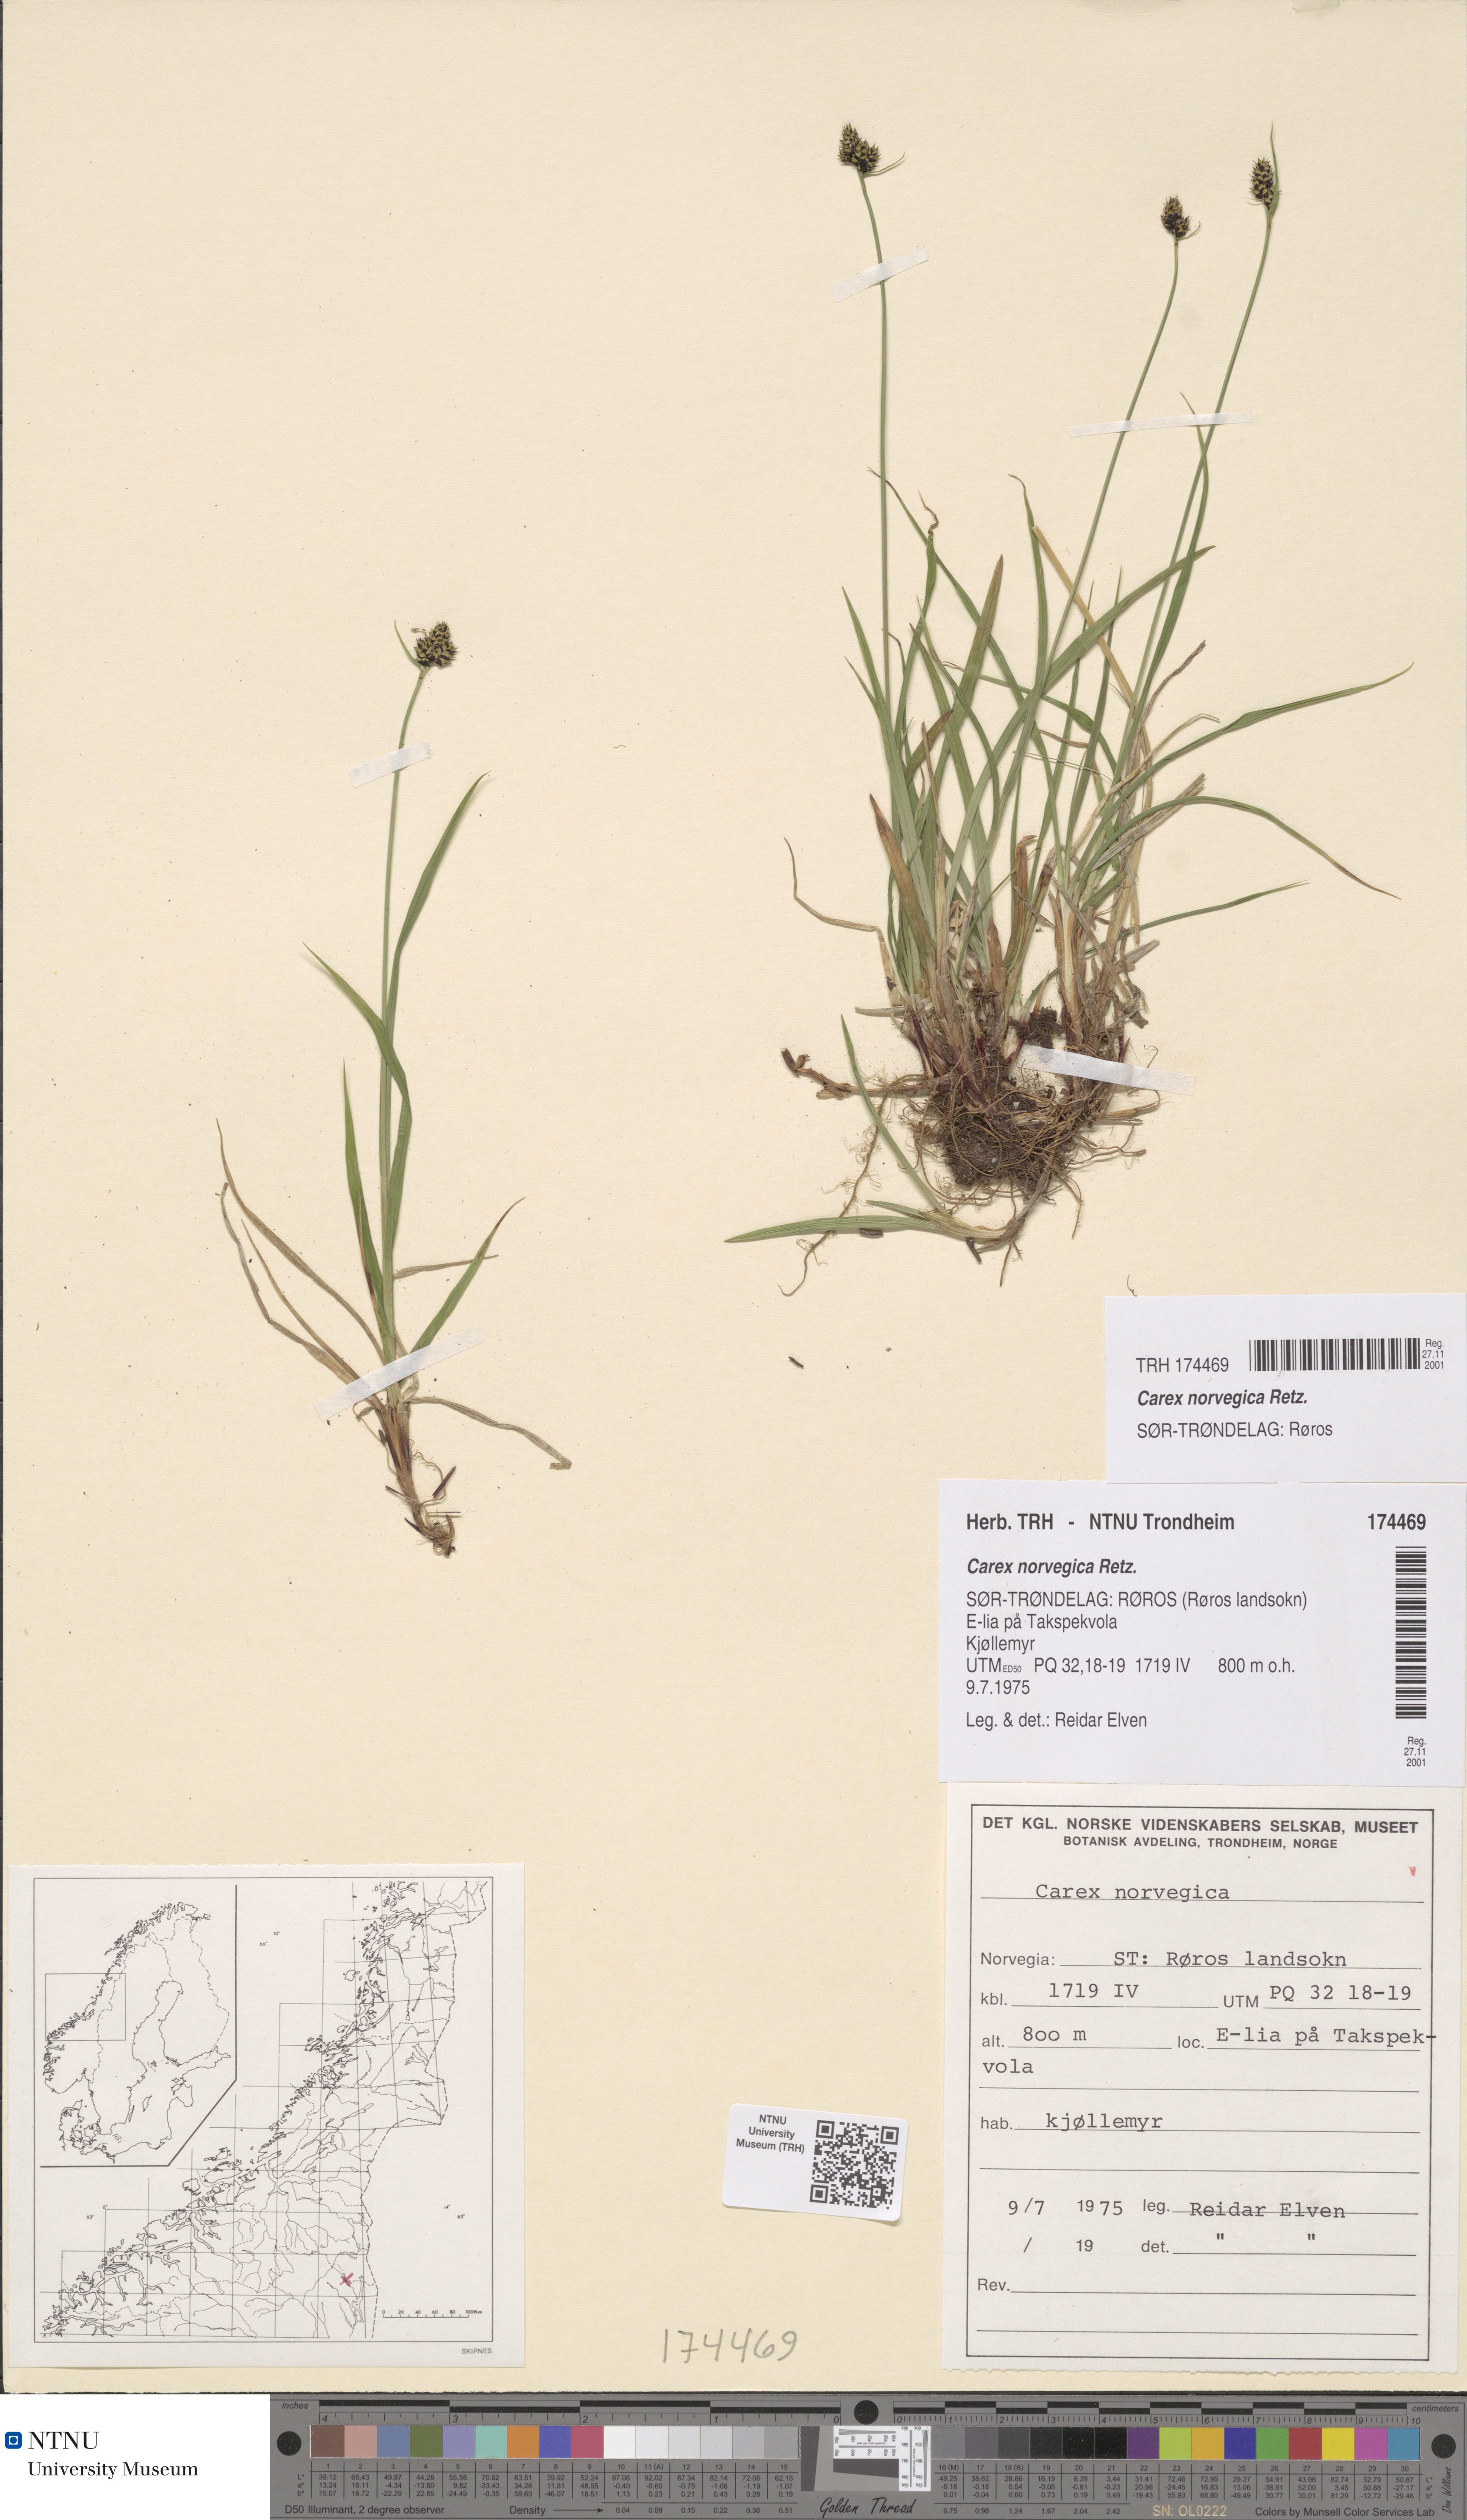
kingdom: Plantae
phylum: Tracheophyta
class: Liliopsida
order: Poales
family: Cyperaceae
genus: Carex
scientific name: Carex norvegica
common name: Close-headed alpine-sedge
